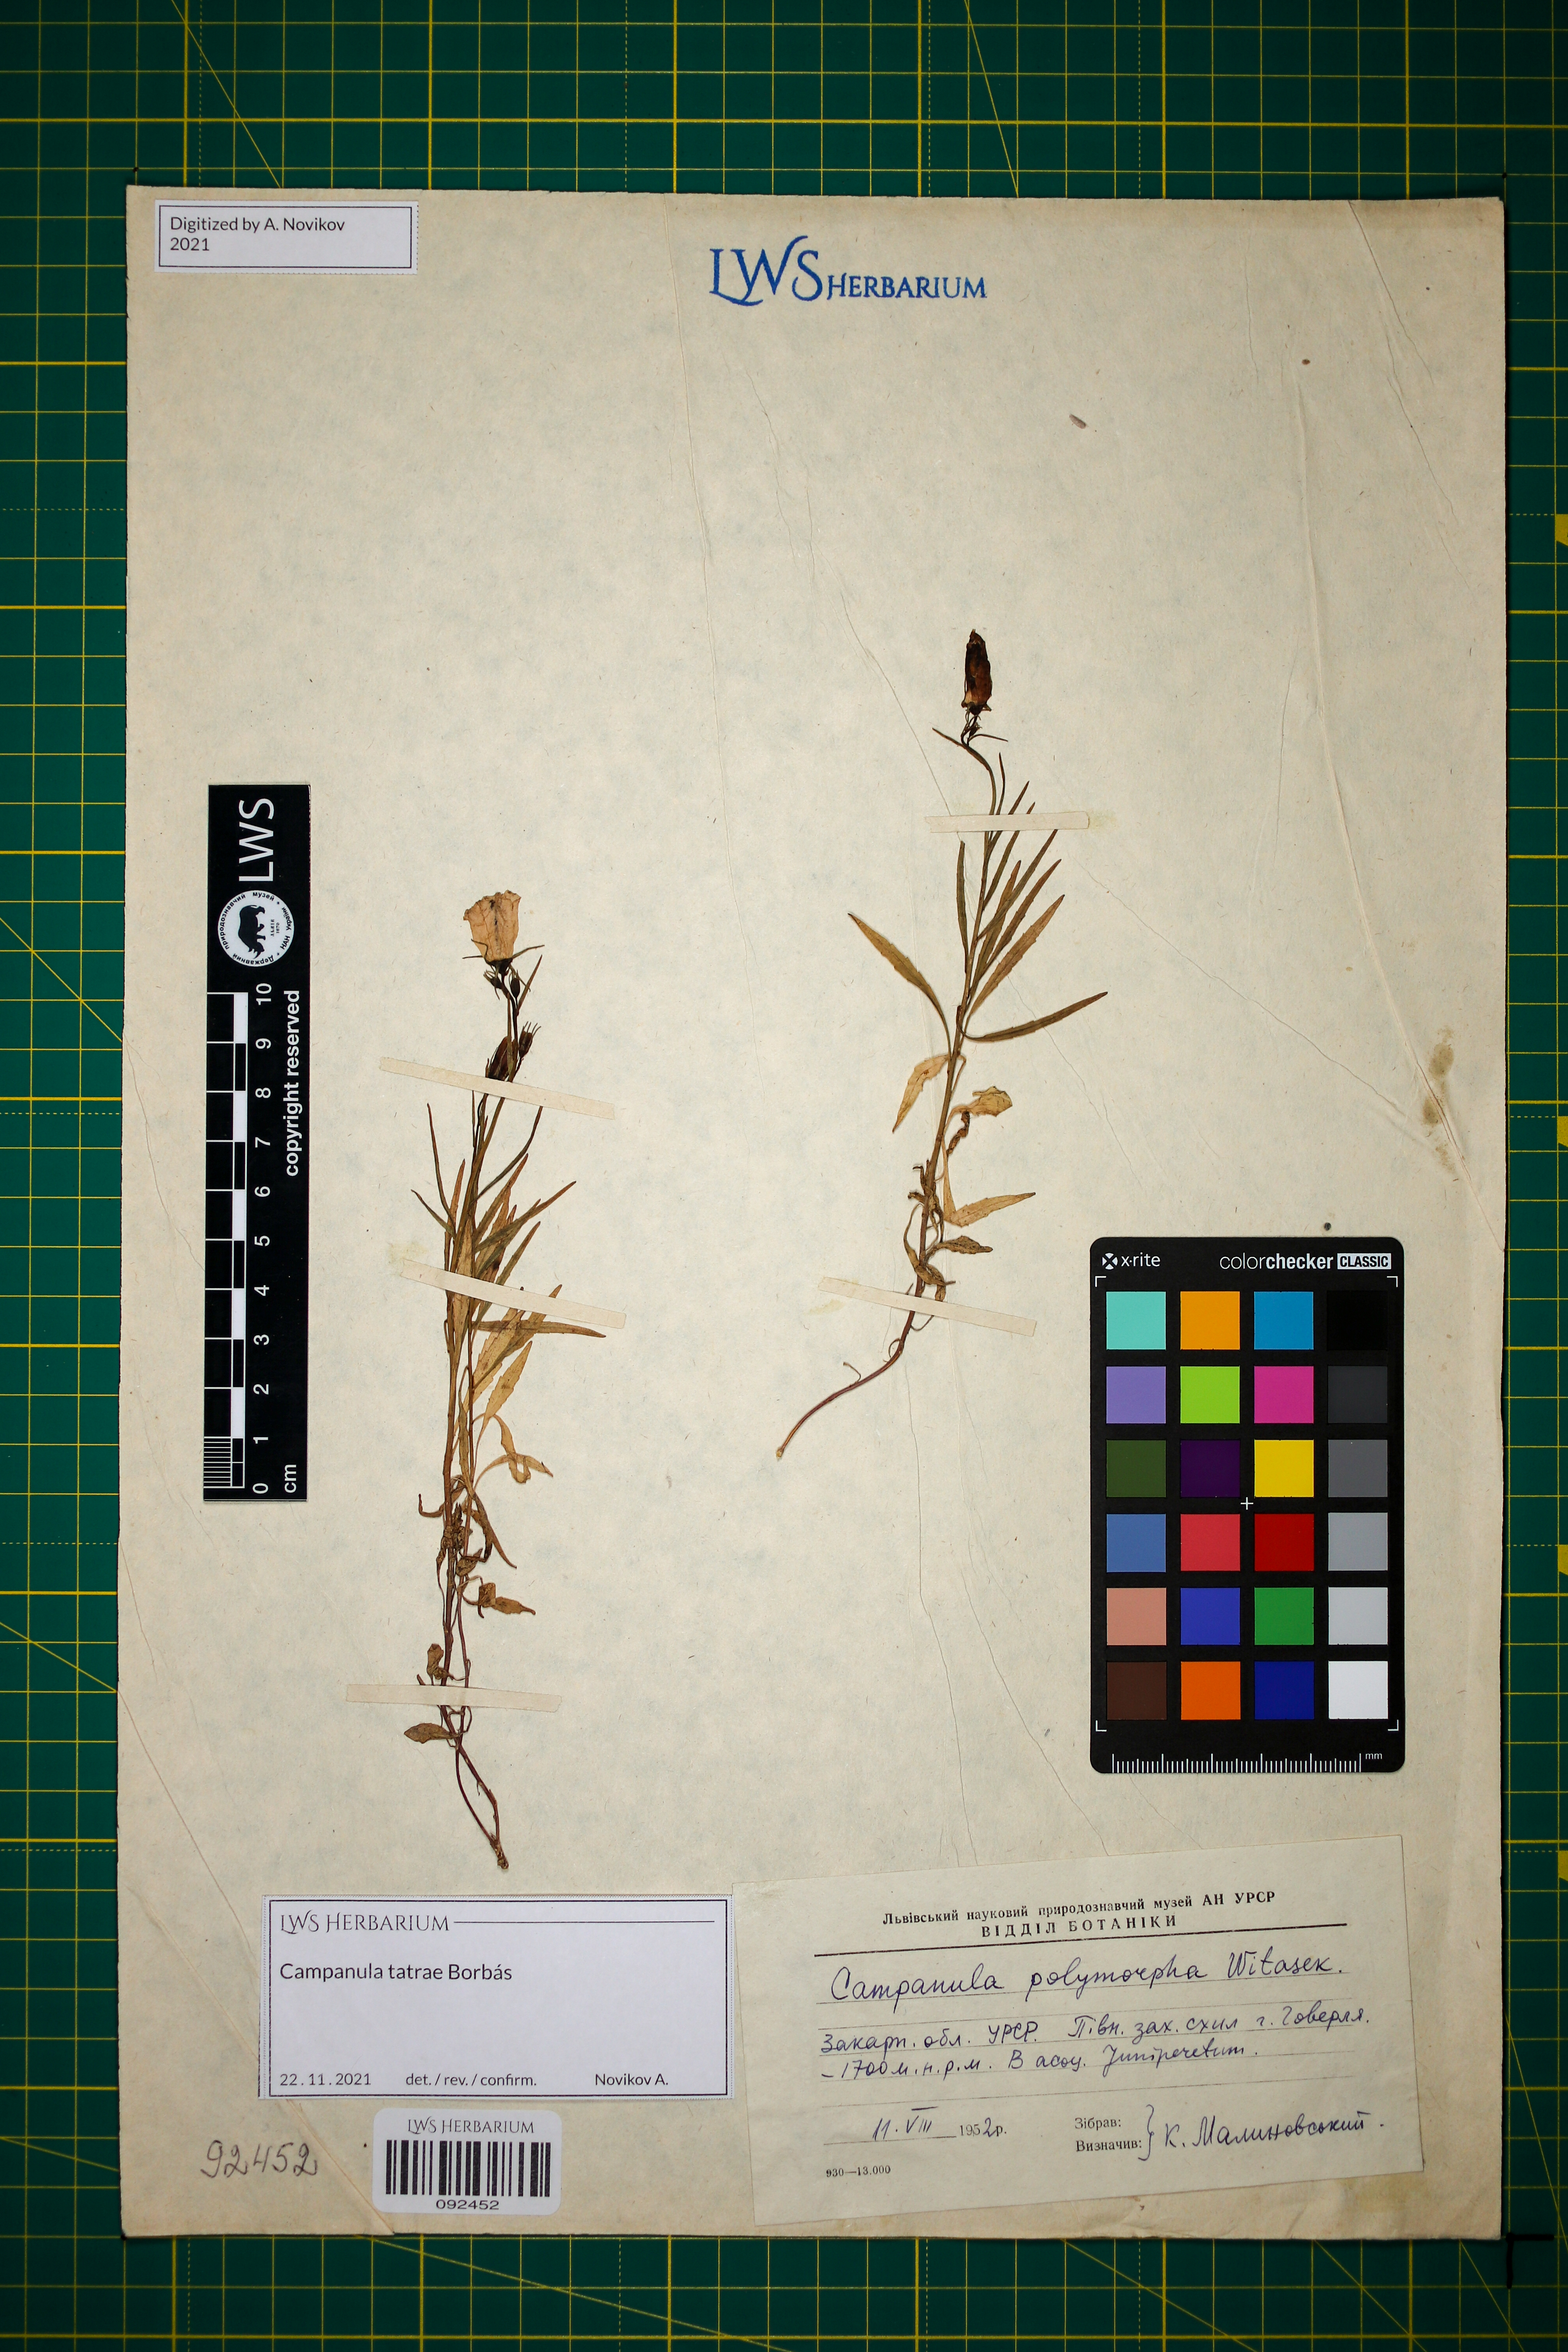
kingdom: Plantae
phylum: Tracheophyta
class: Magnoliopsida
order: Asterales
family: Campanulaceae
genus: Campanula
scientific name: Campanula tatrae
